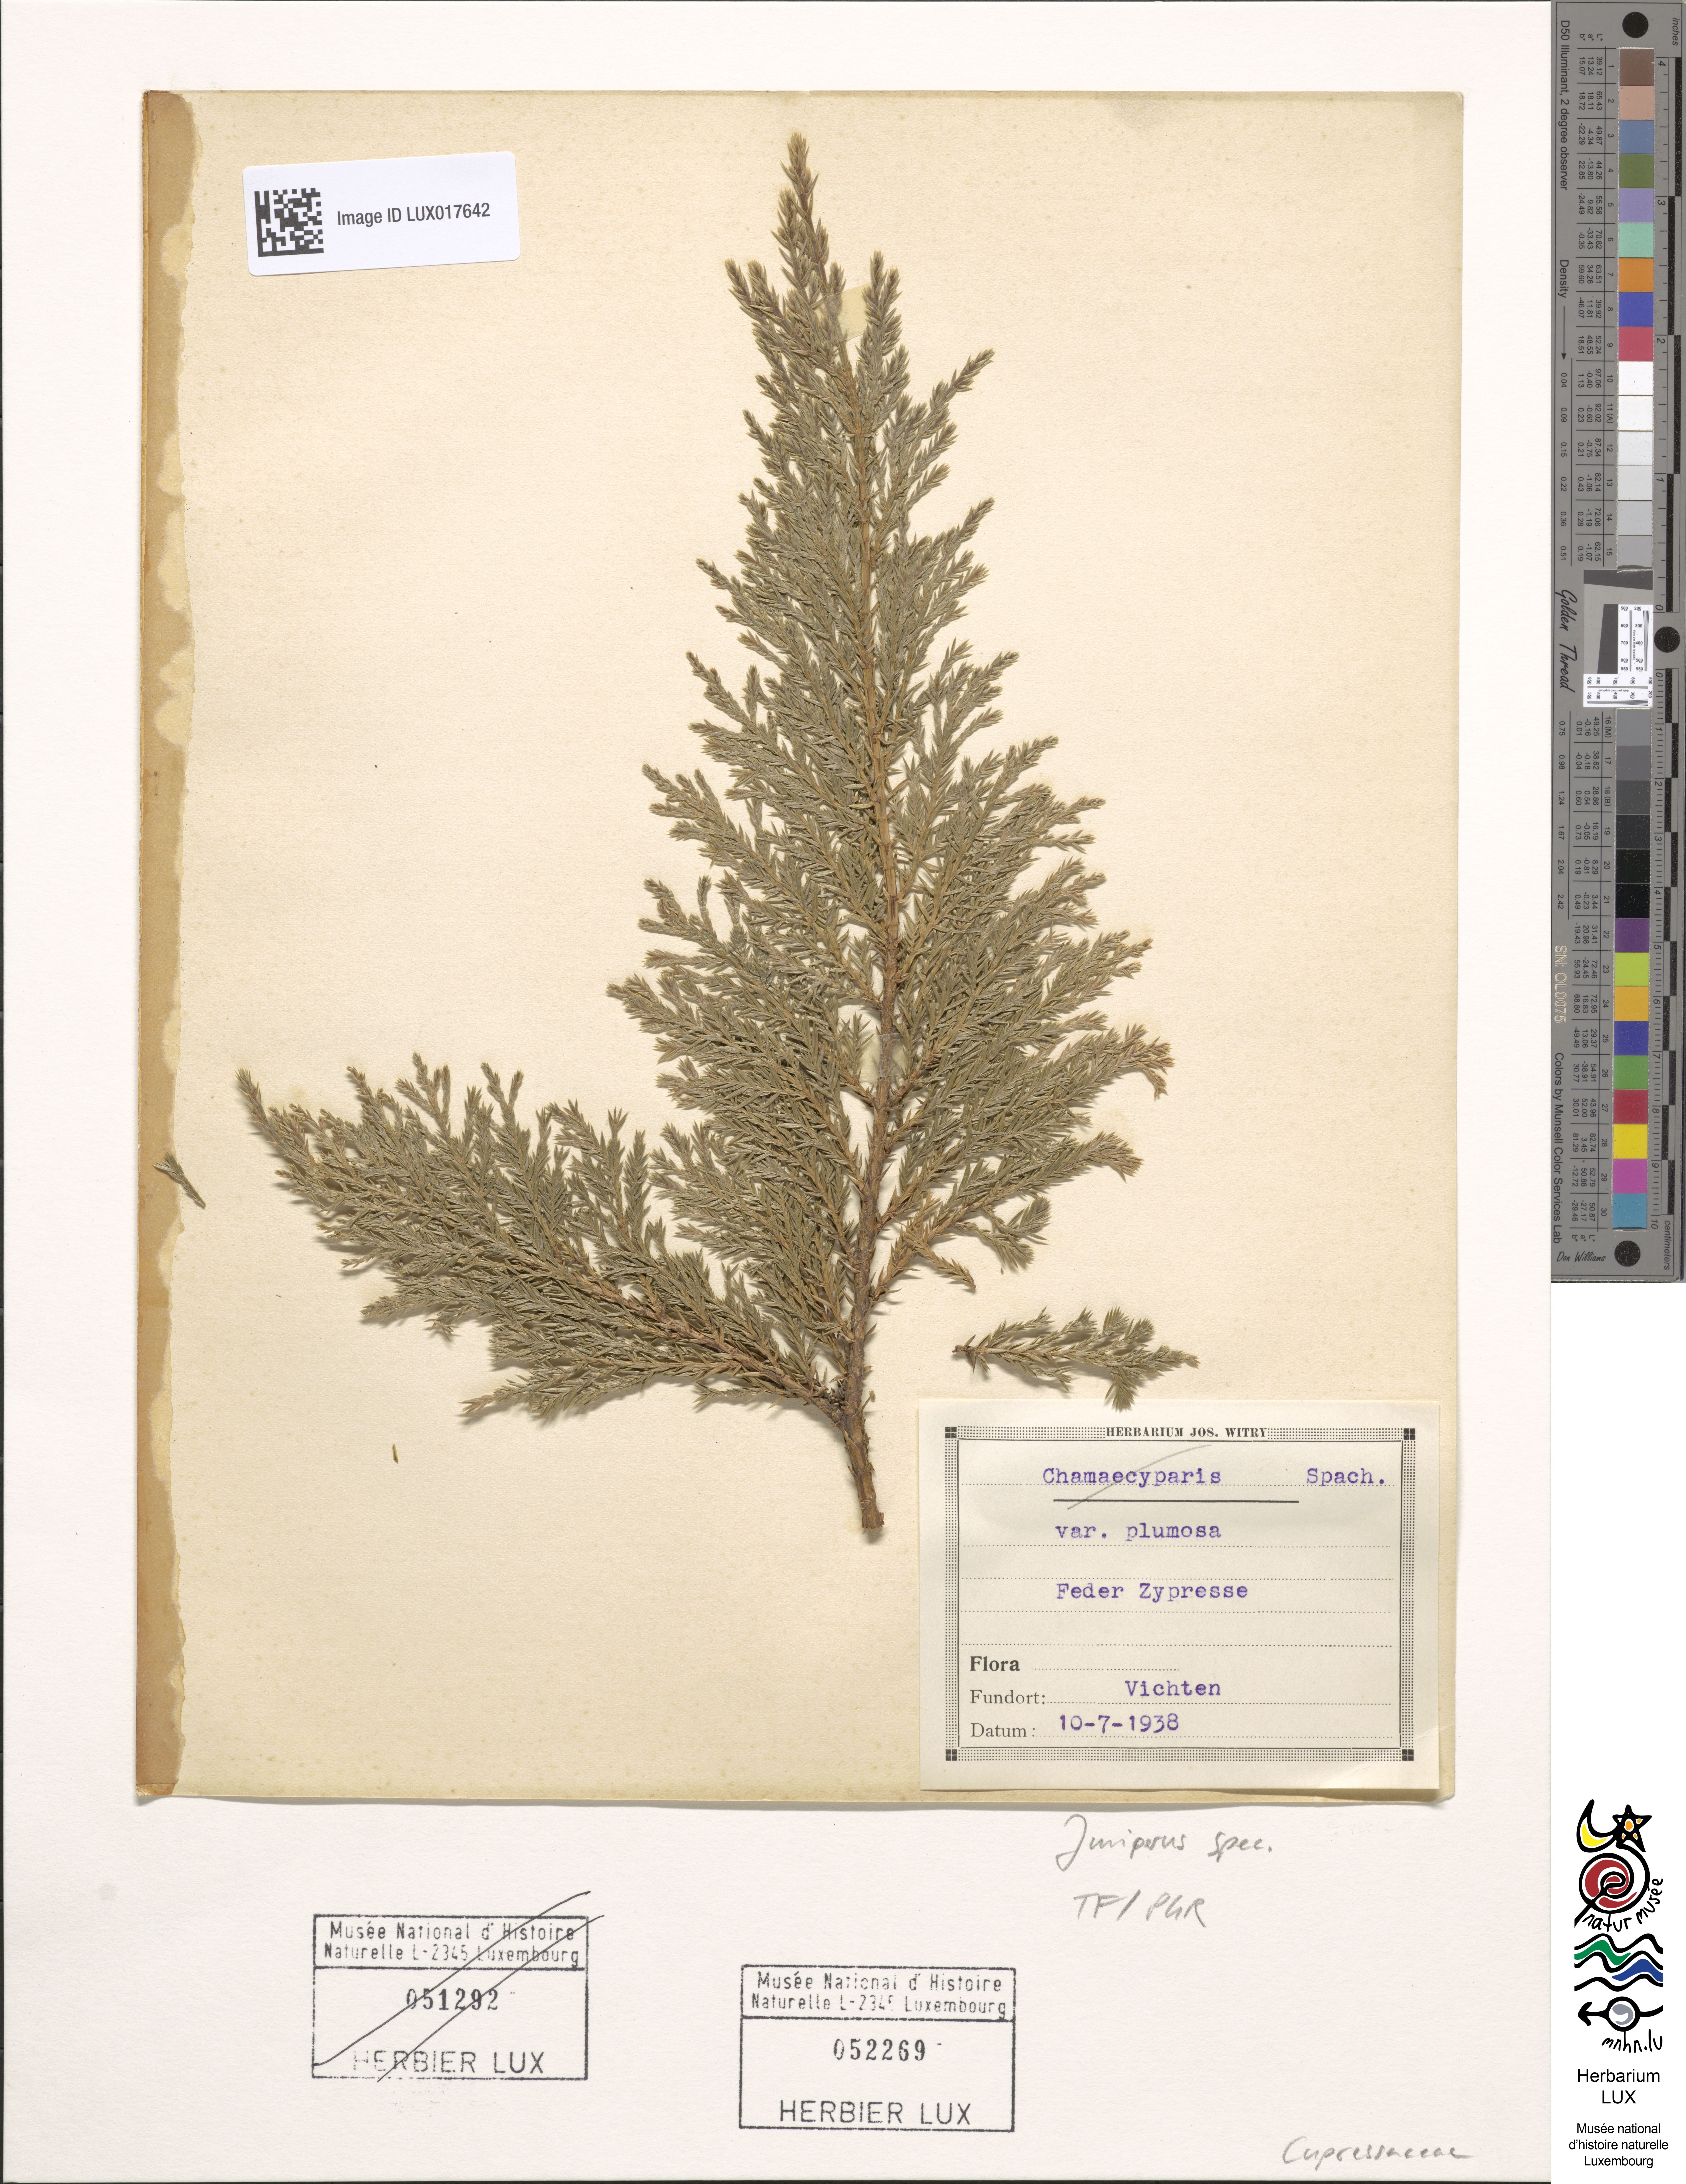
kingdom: Plantae
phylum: Tracheophyta
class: Pinopsida
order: Pinales
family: Cupressaceae
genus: Juniperus
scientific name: Juniperus
